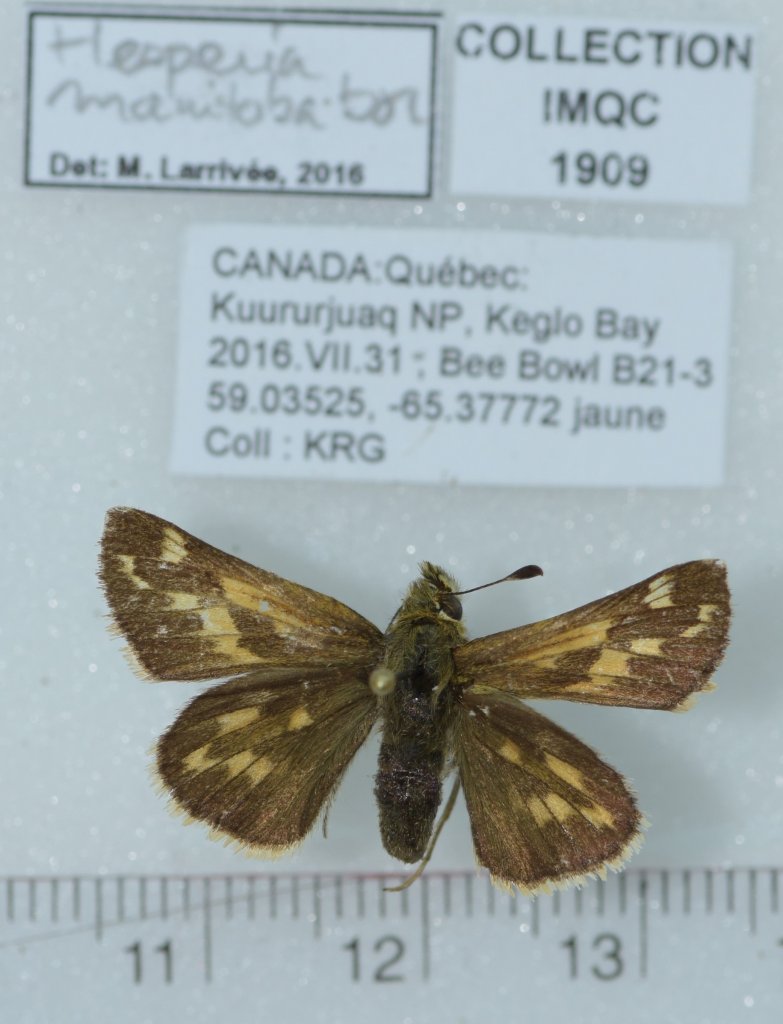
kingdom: Animalia
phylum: Arthropoda
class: Insecta
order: Lepidoptera
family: Hesperiidae
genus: Hesperia
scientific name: Hesperia comma
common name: Common Branded Skipper
